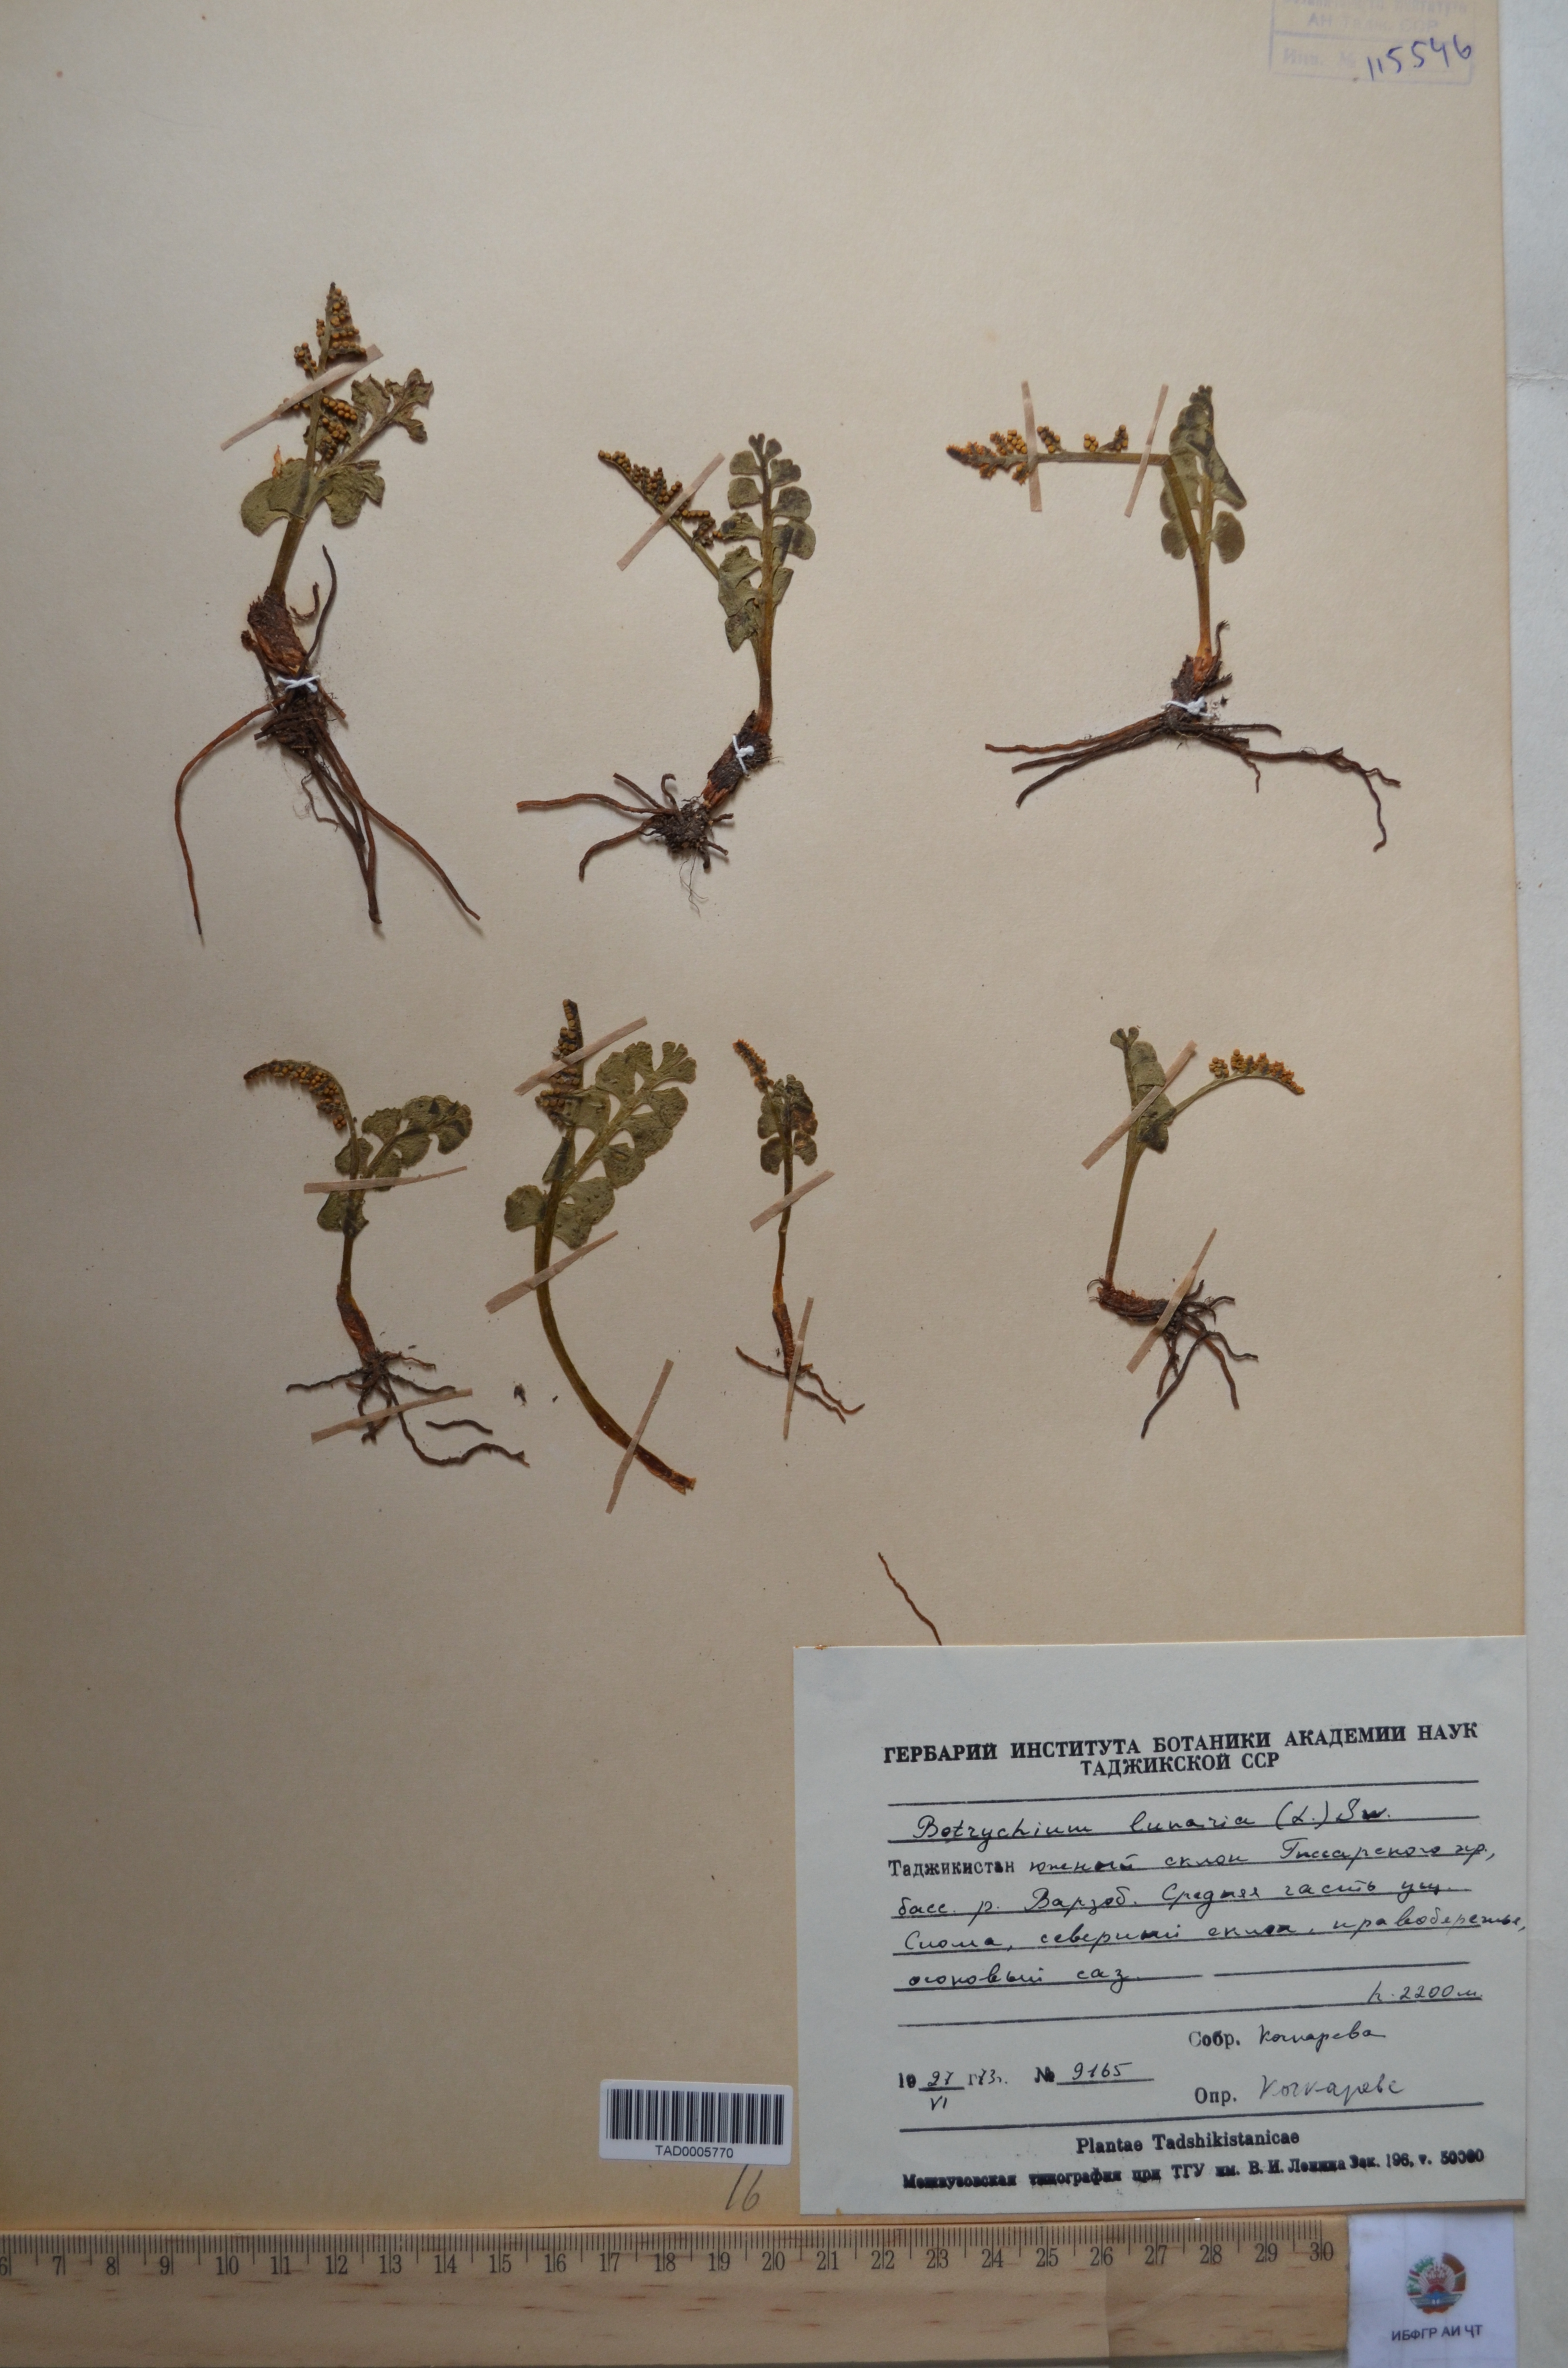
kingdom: Plantae
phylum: Tracheophyta
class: Polypodiopsida
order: Ophioglossales
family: Ophioglossaceae
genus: Botrychium
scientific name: Botrychium lunaria
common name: Moonwort
